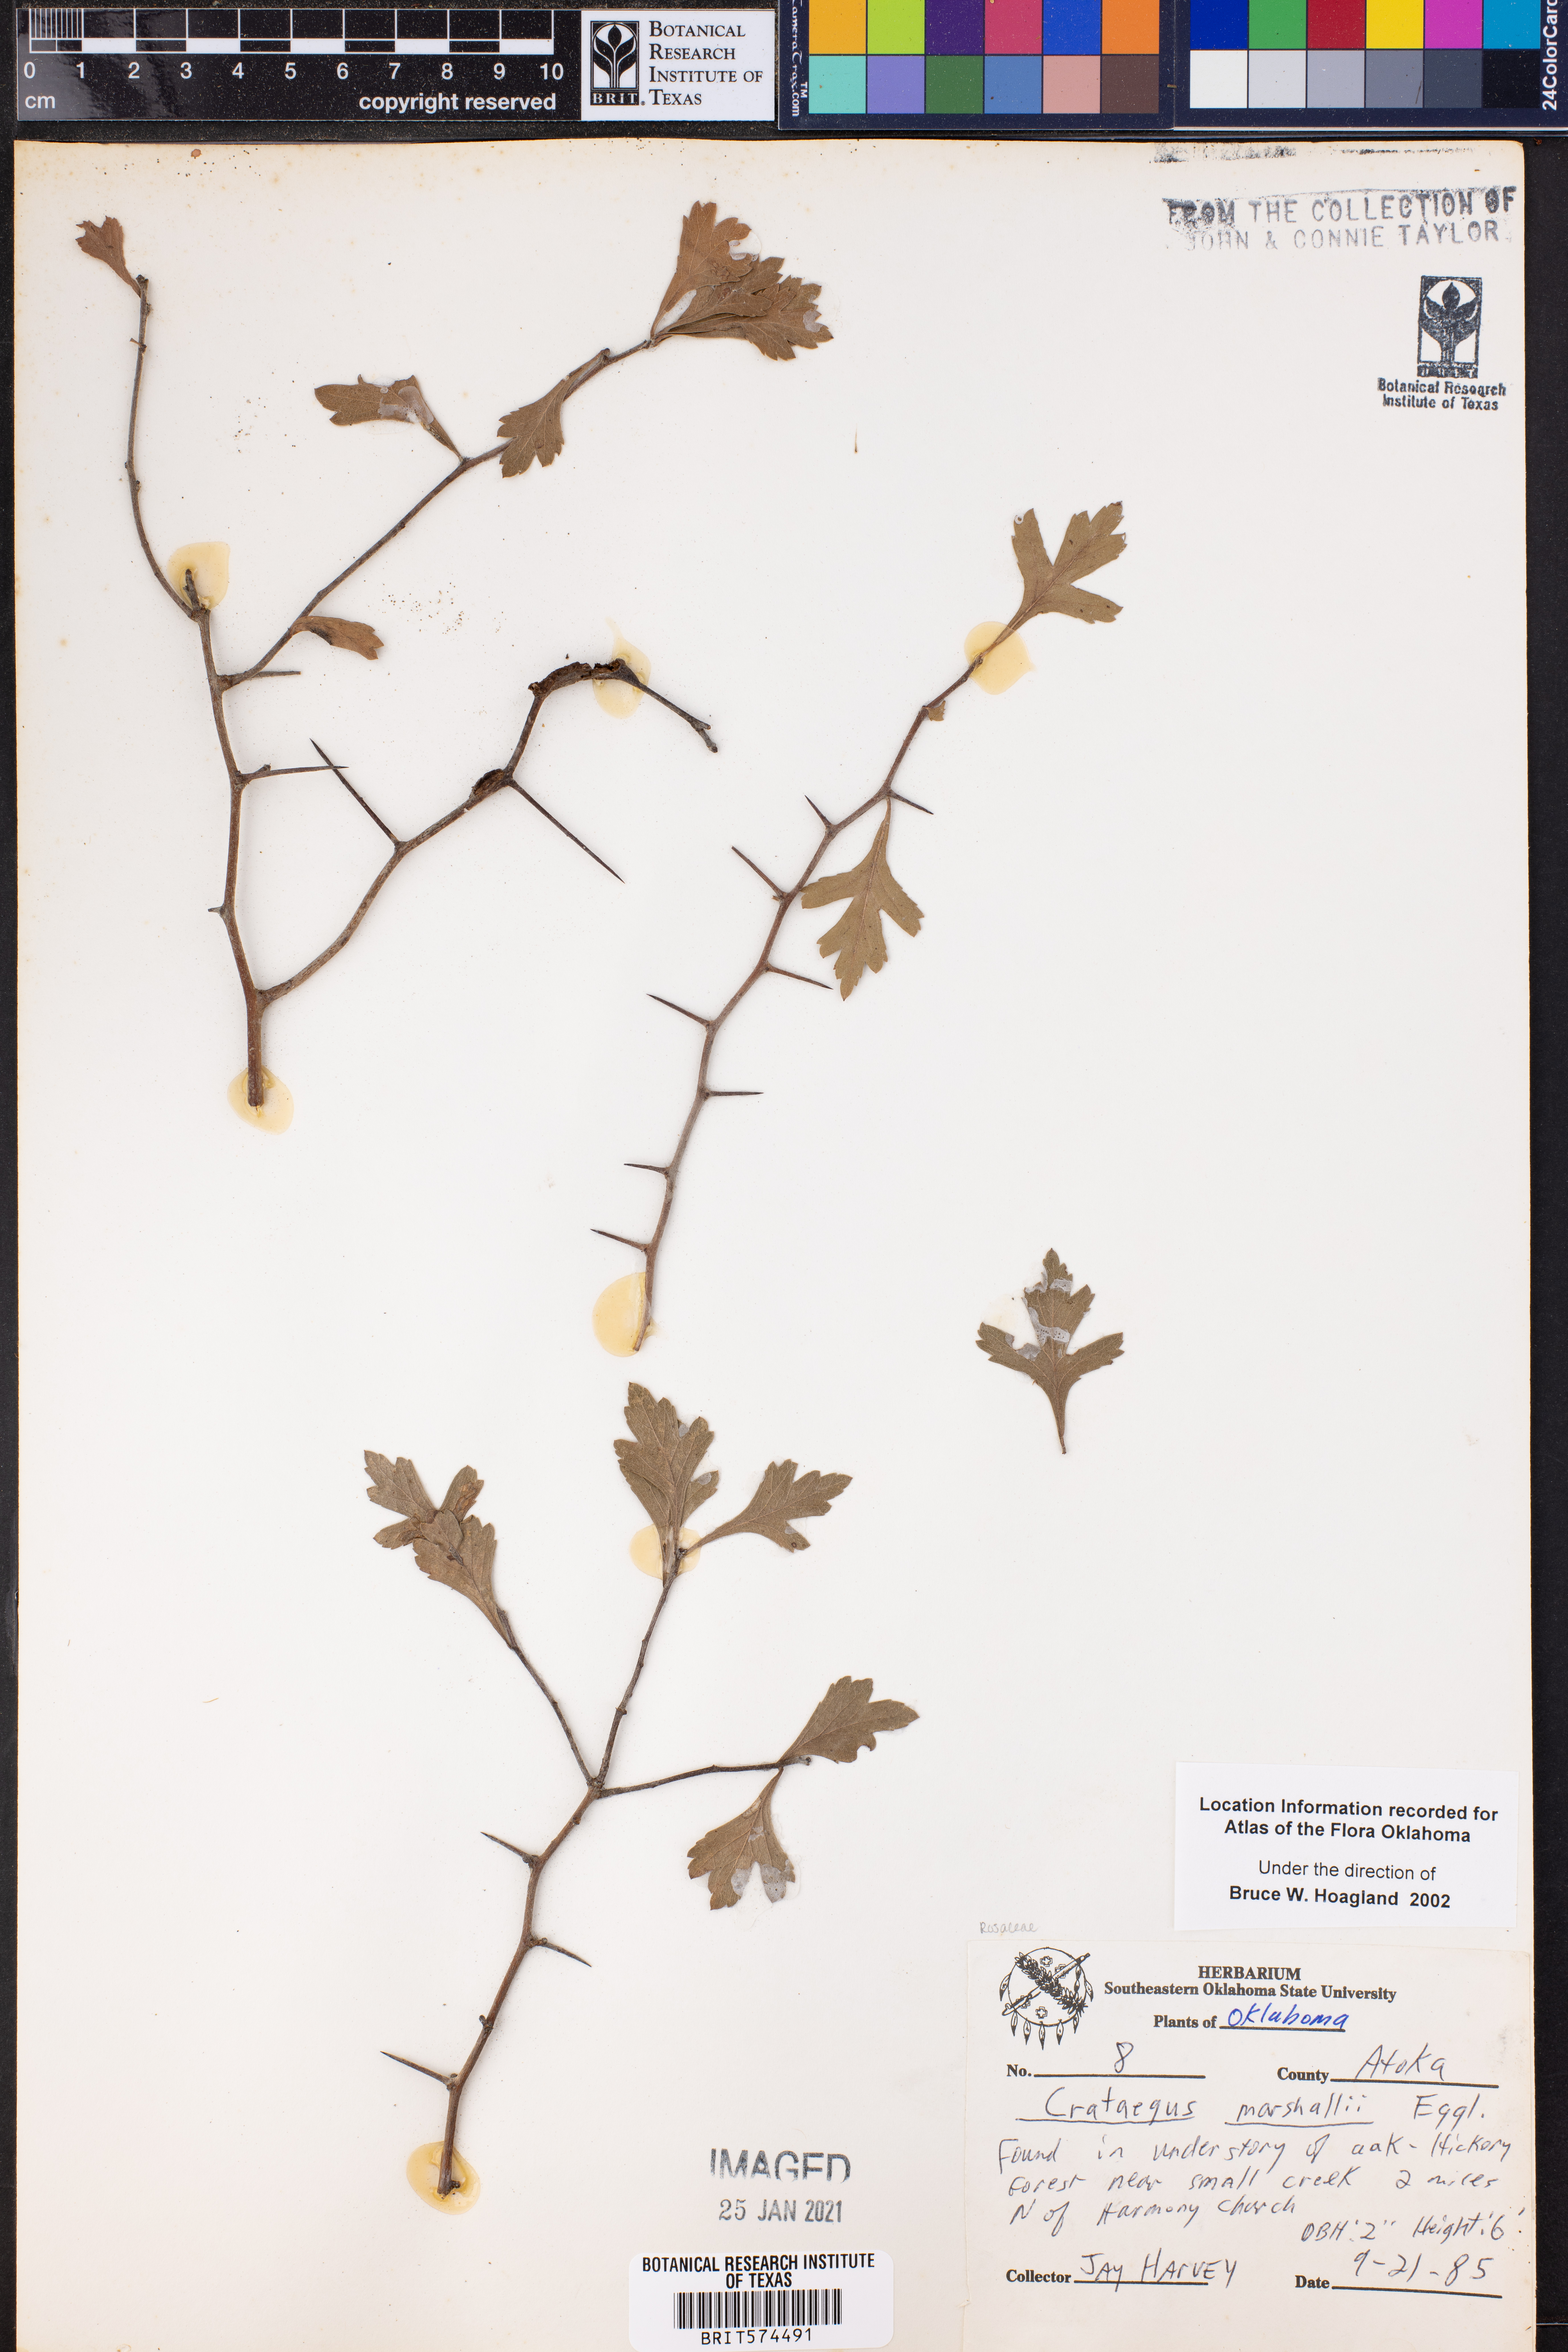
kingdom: Plantae
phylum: Tracheophyta
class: Magnoliopsida
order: Rosales
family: Rosaceae
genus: Crataegus
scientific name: Crataegus marshallii
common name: Parsley-hawthorn
